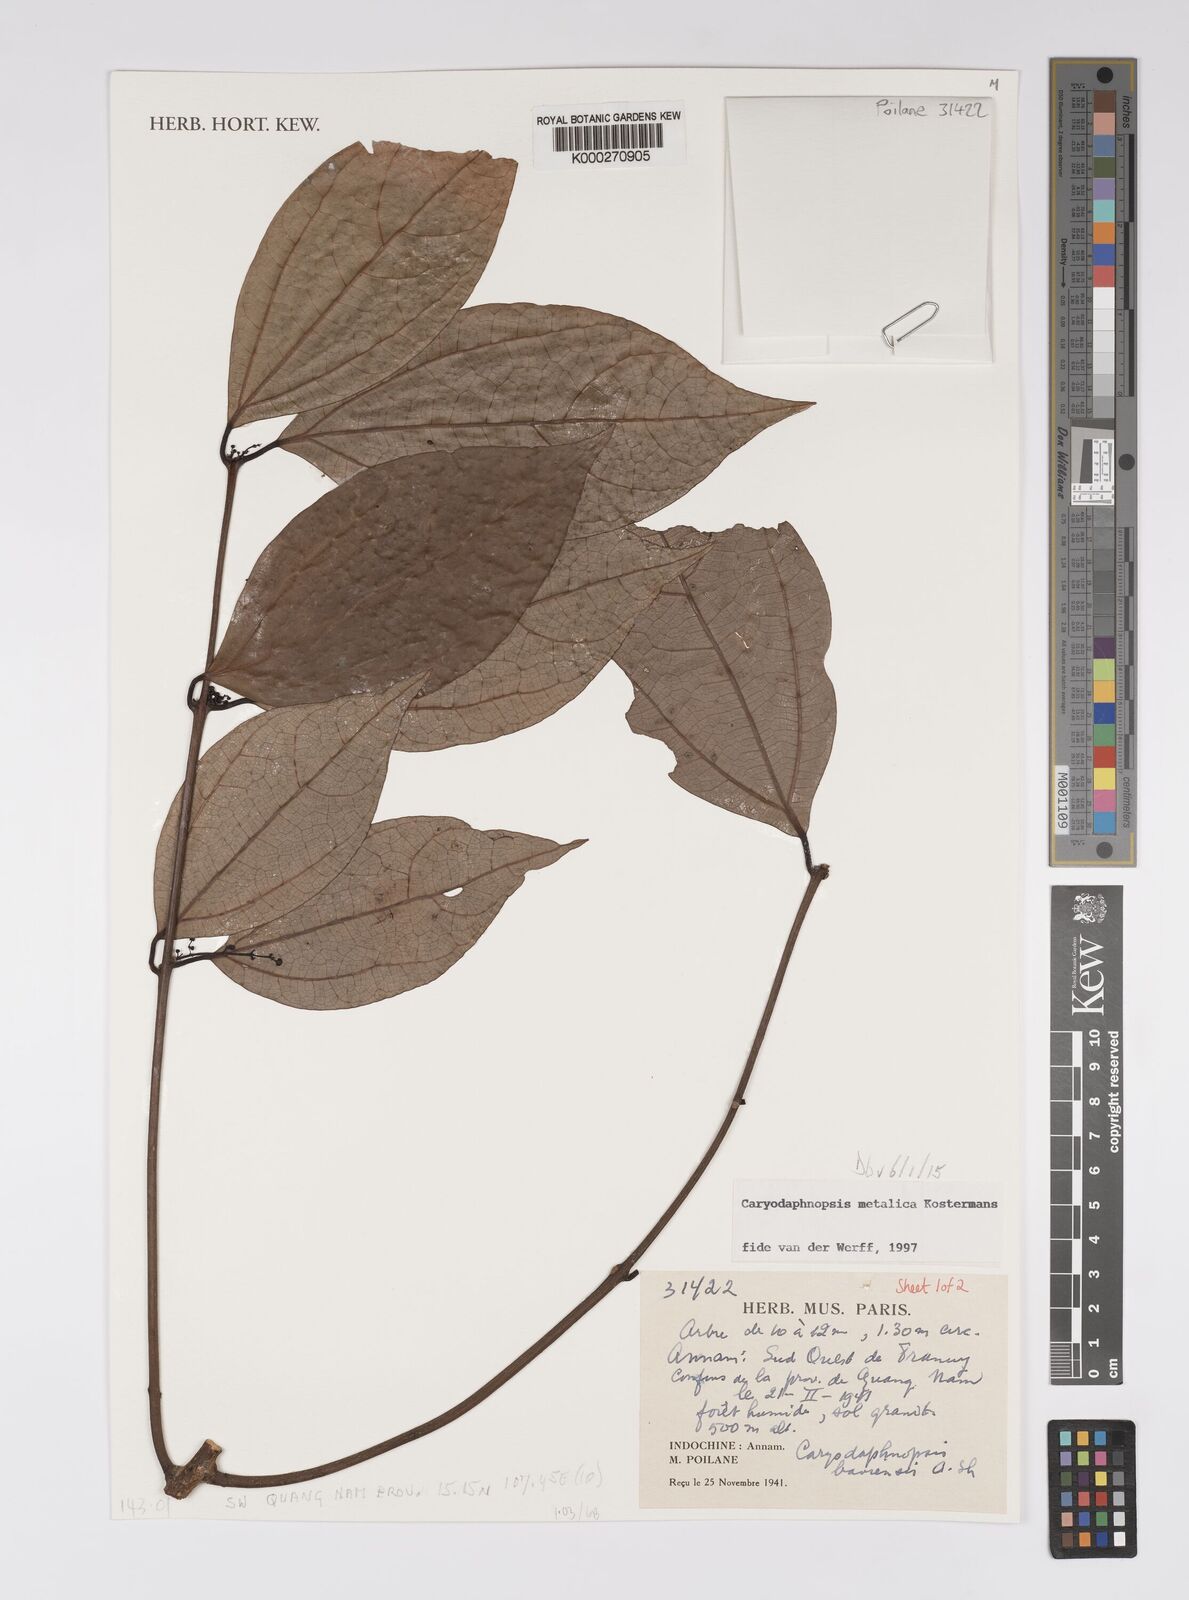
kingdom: Plantae
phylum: Tracheophyta
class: Magnoliopsida
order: Laurales
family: Lauraceae
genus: Caryodaphnopsis
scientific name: Caryodaphnopsis metallica
